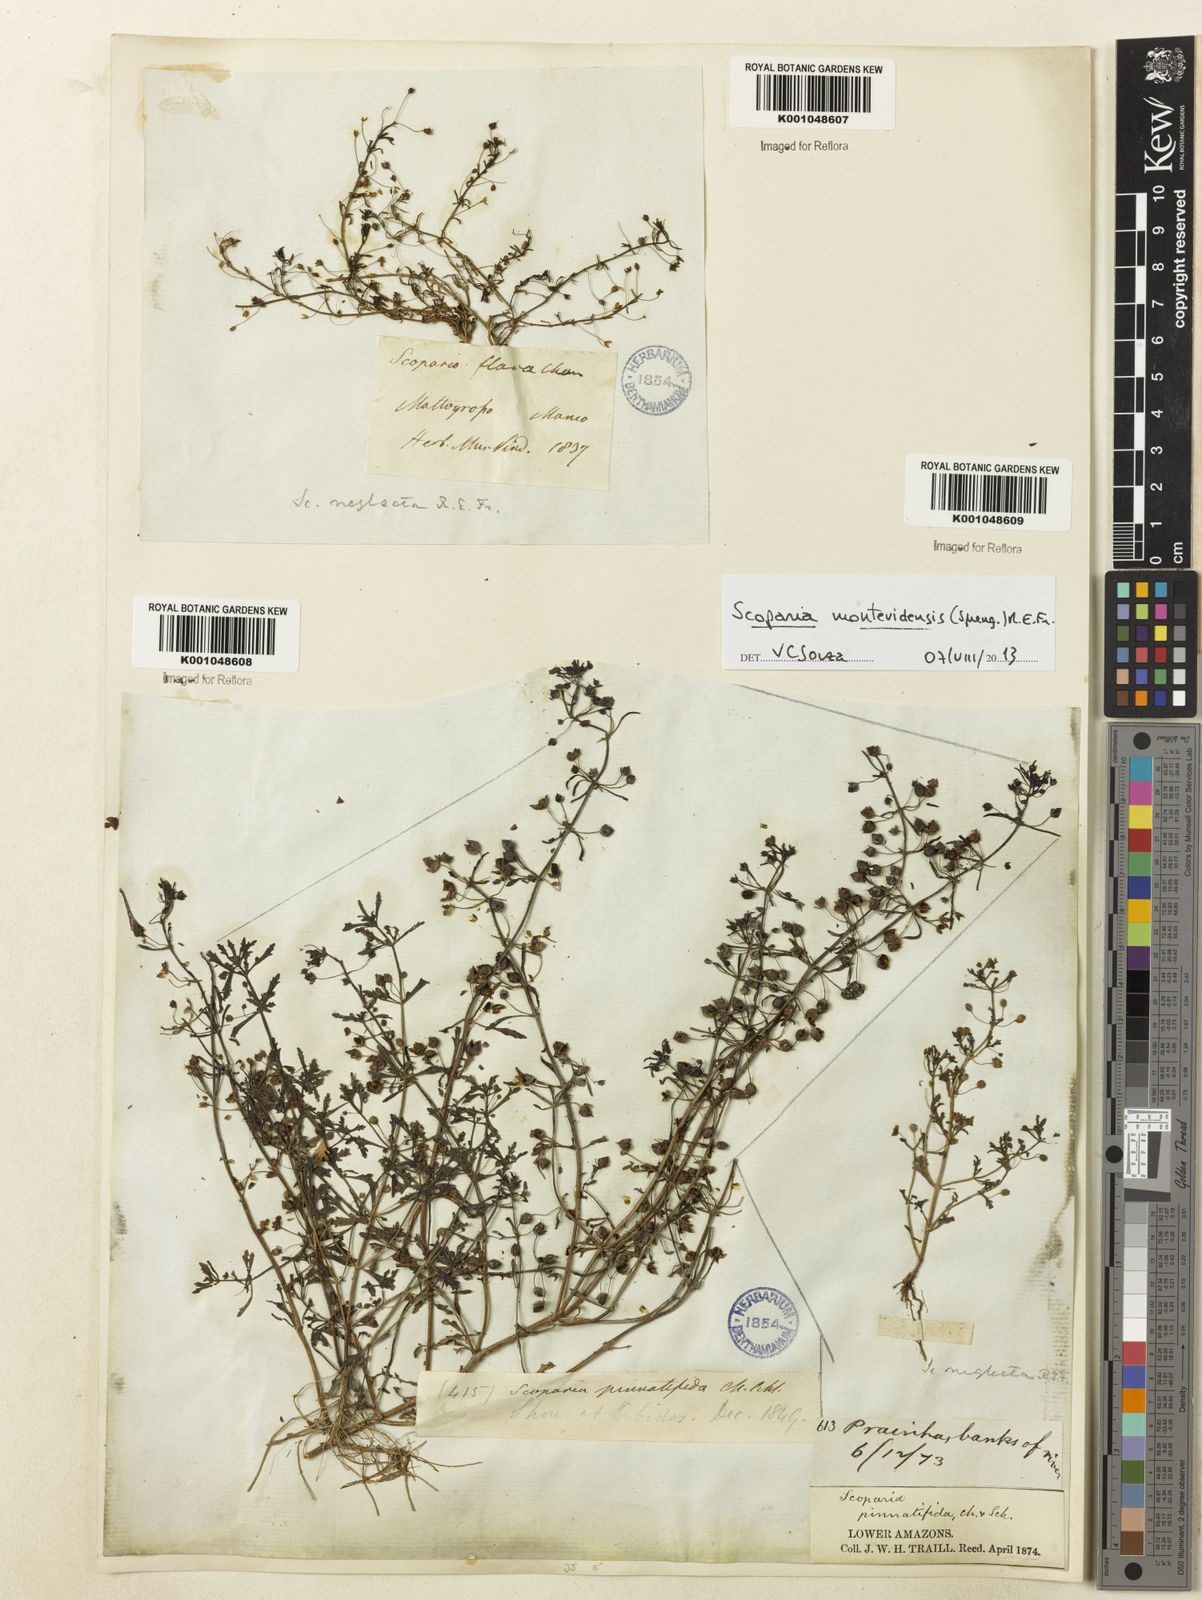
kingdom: Plantae
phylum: Tracheophyta
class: Magnoliopsida
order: Lamiales
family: Plantaginaceae
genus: Scoparia
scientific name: Scoparia montevidensis
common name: Broomwort
